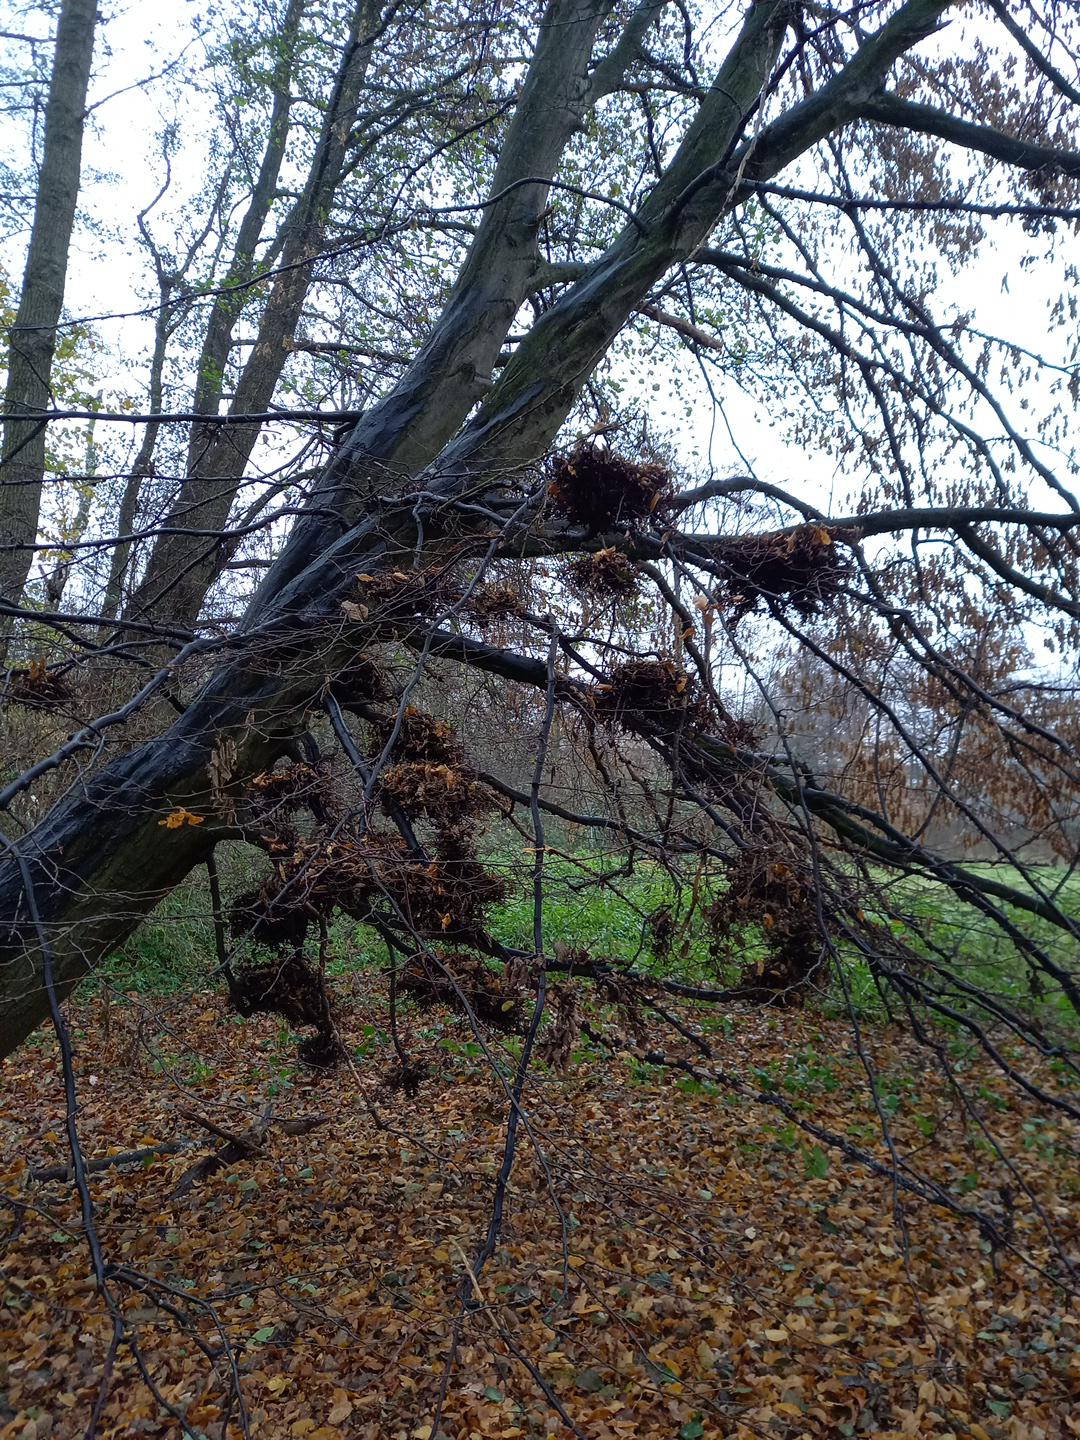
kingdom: Fungi
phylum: Ascomycota
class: Taphrinomycetes
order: Taphrinales
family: Taphrinaceae
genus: Taphrina
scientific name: Taphrina carpini
